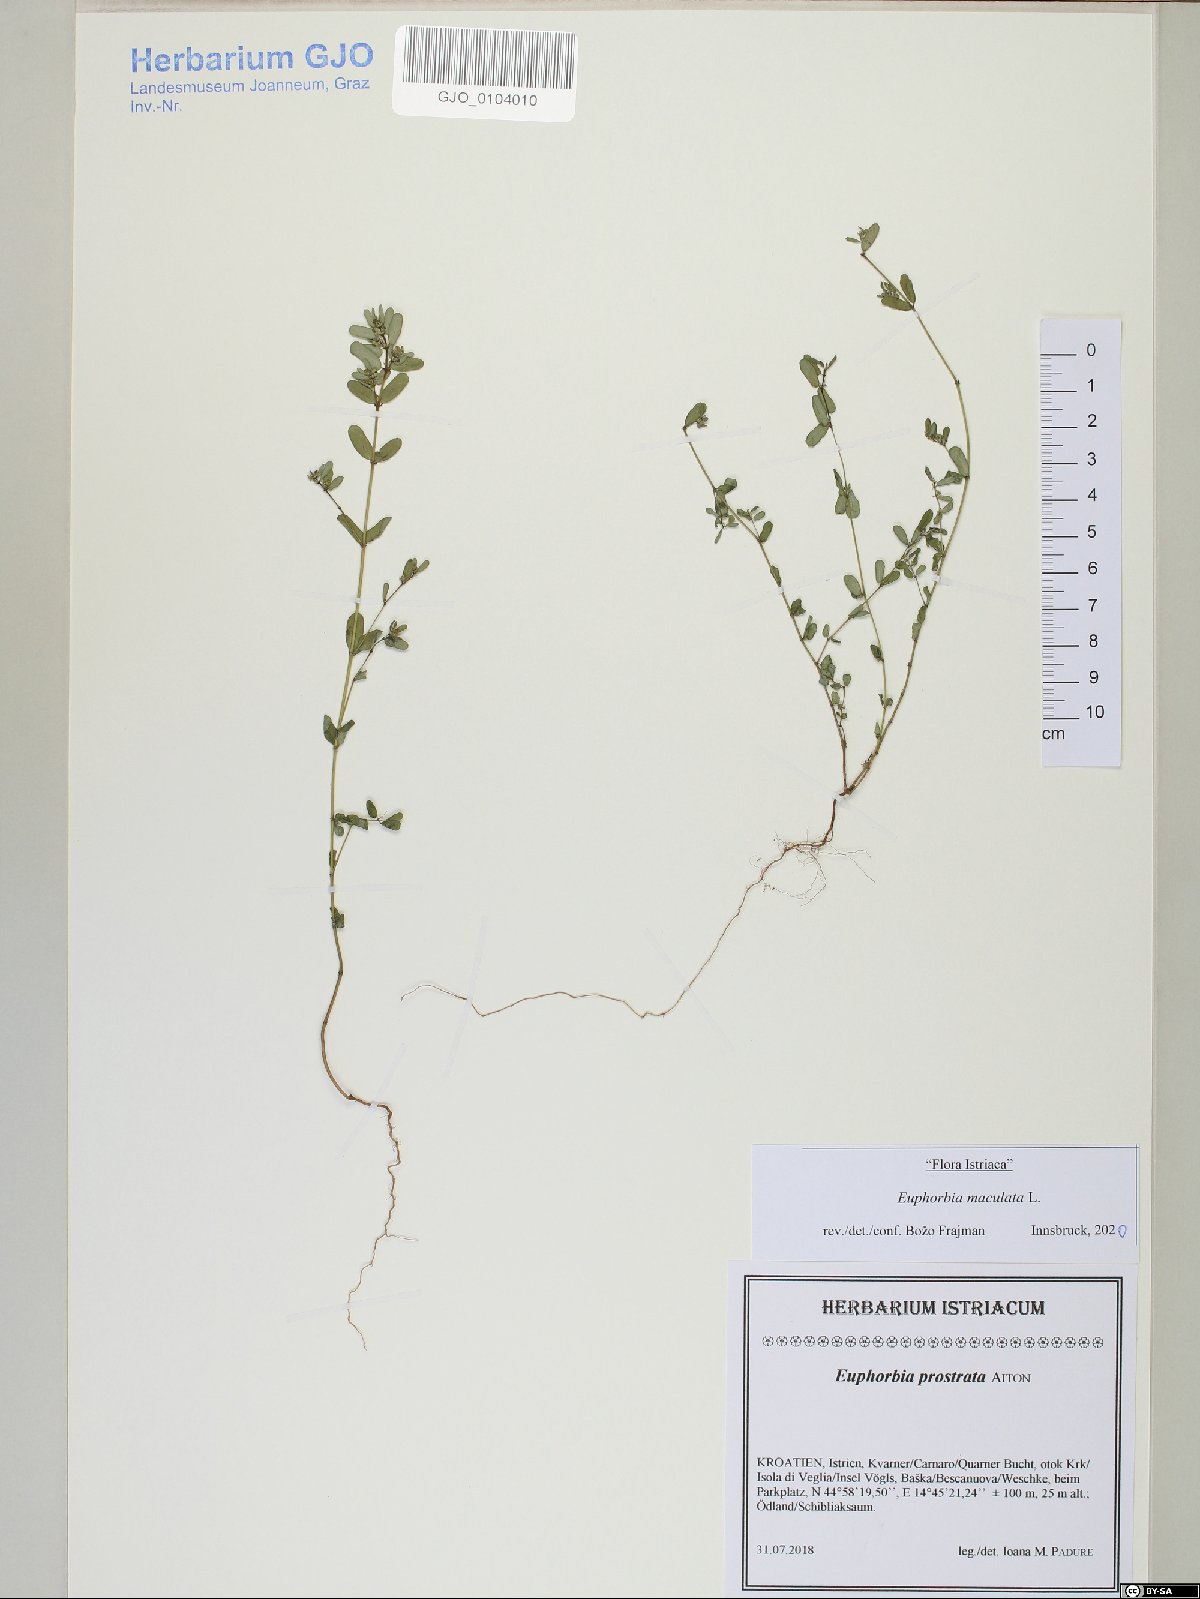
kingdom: Plantae
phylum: Tracheophyta
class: Magnoliopsida
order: Malpighiales
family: Euphorbiaceae
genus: Euphorbia
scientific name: Euphorbia maculata
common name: Spotted spurge
